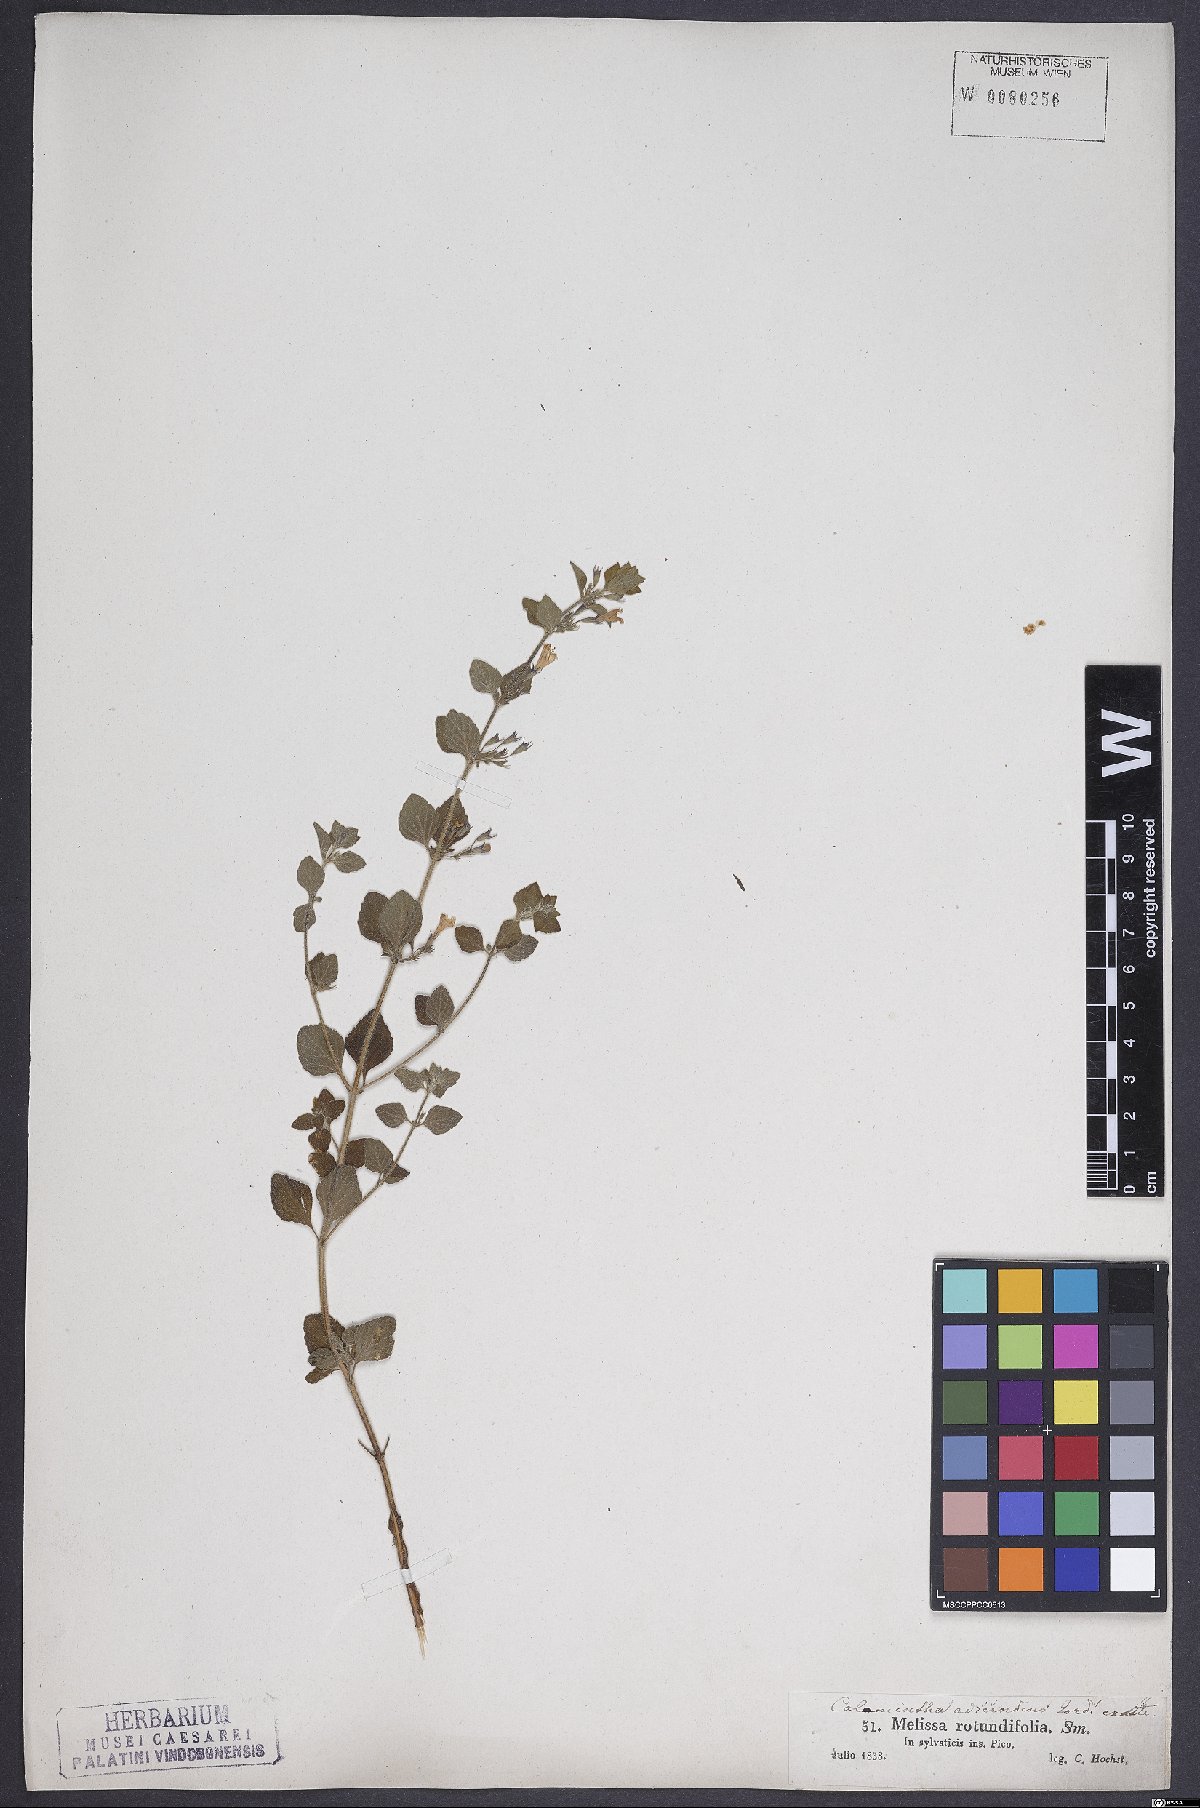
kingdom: Plantae
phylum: Tracheophyta
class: Magnoliopsida
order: Lamiales
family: Lamiaceae
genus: Clinopodium
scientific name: Clinopodium menthifolium
